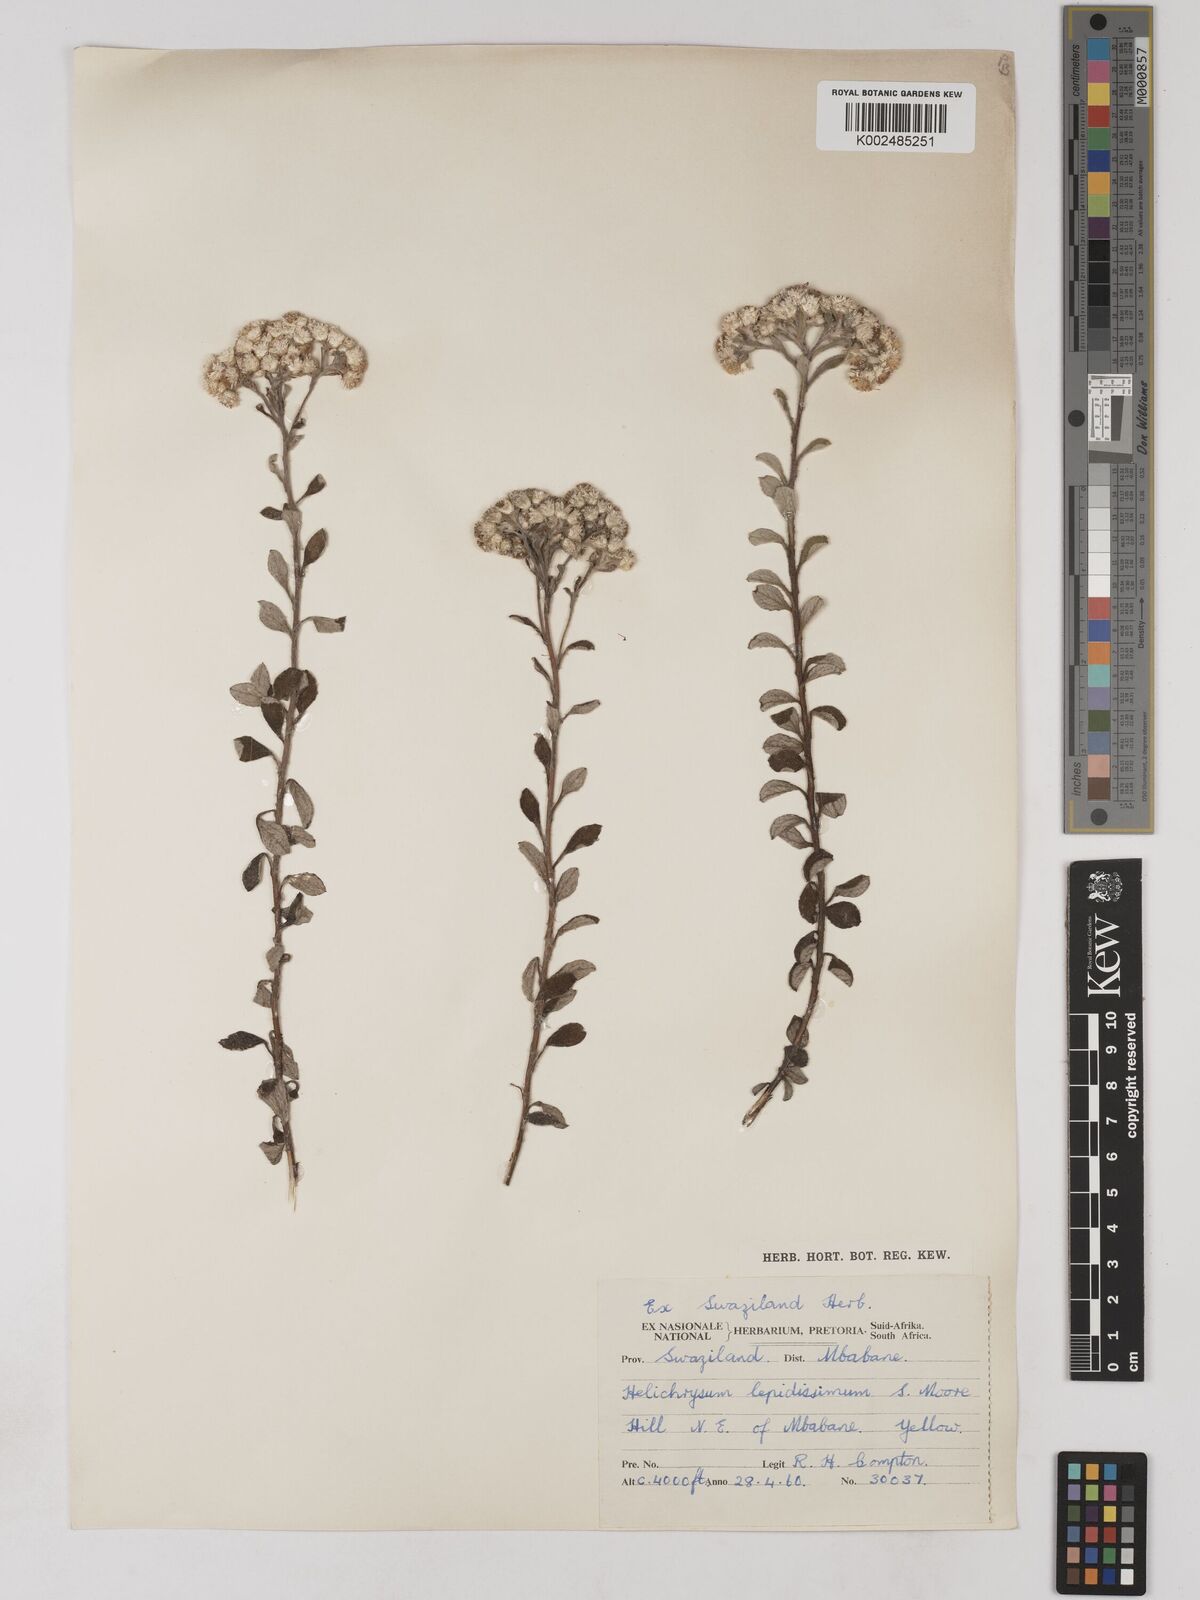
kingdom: Plantae
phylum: Tracheophyta
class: Magnoliopsida
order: Asterales
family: Asteraceae
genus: Helichrysum
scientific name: Helichrysum lepidissimum
